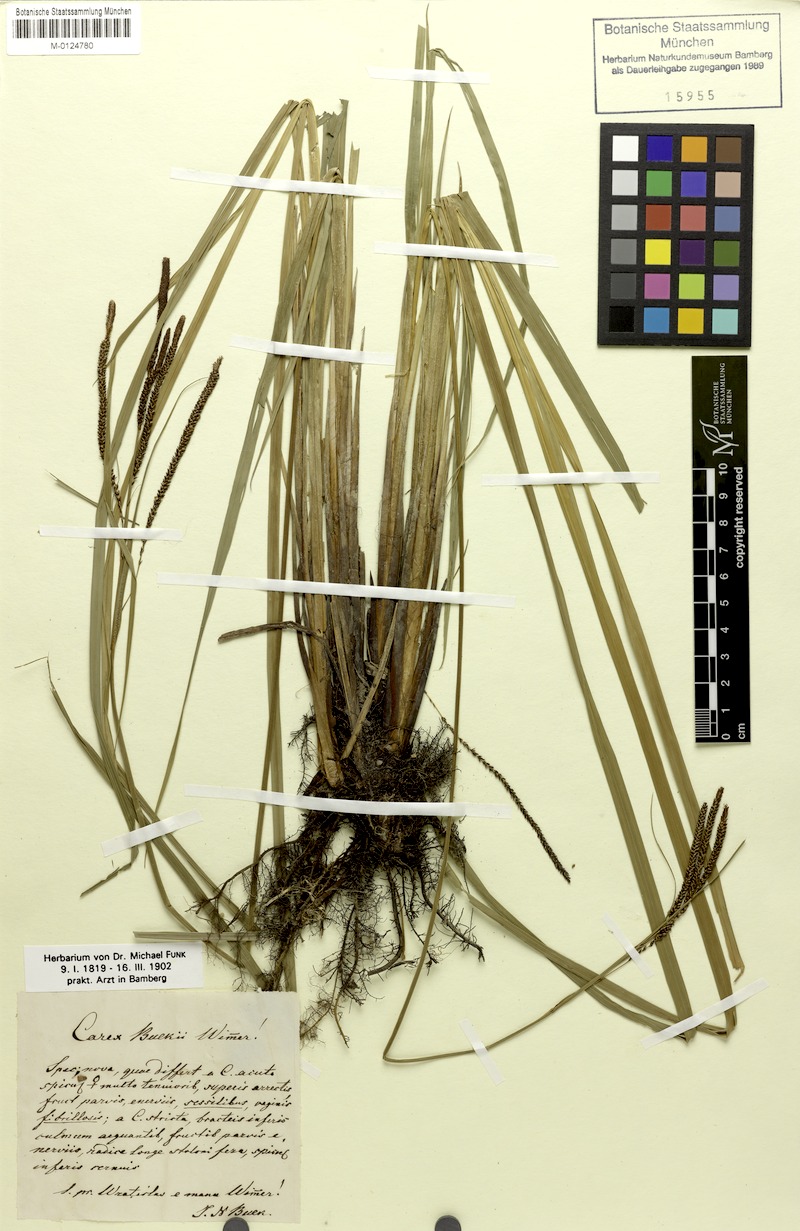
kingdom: Plantae
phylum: Tracheophyta
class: Liliopsida
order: Poales
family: Cyperaceae
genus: Carex
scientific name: Carex buekii
